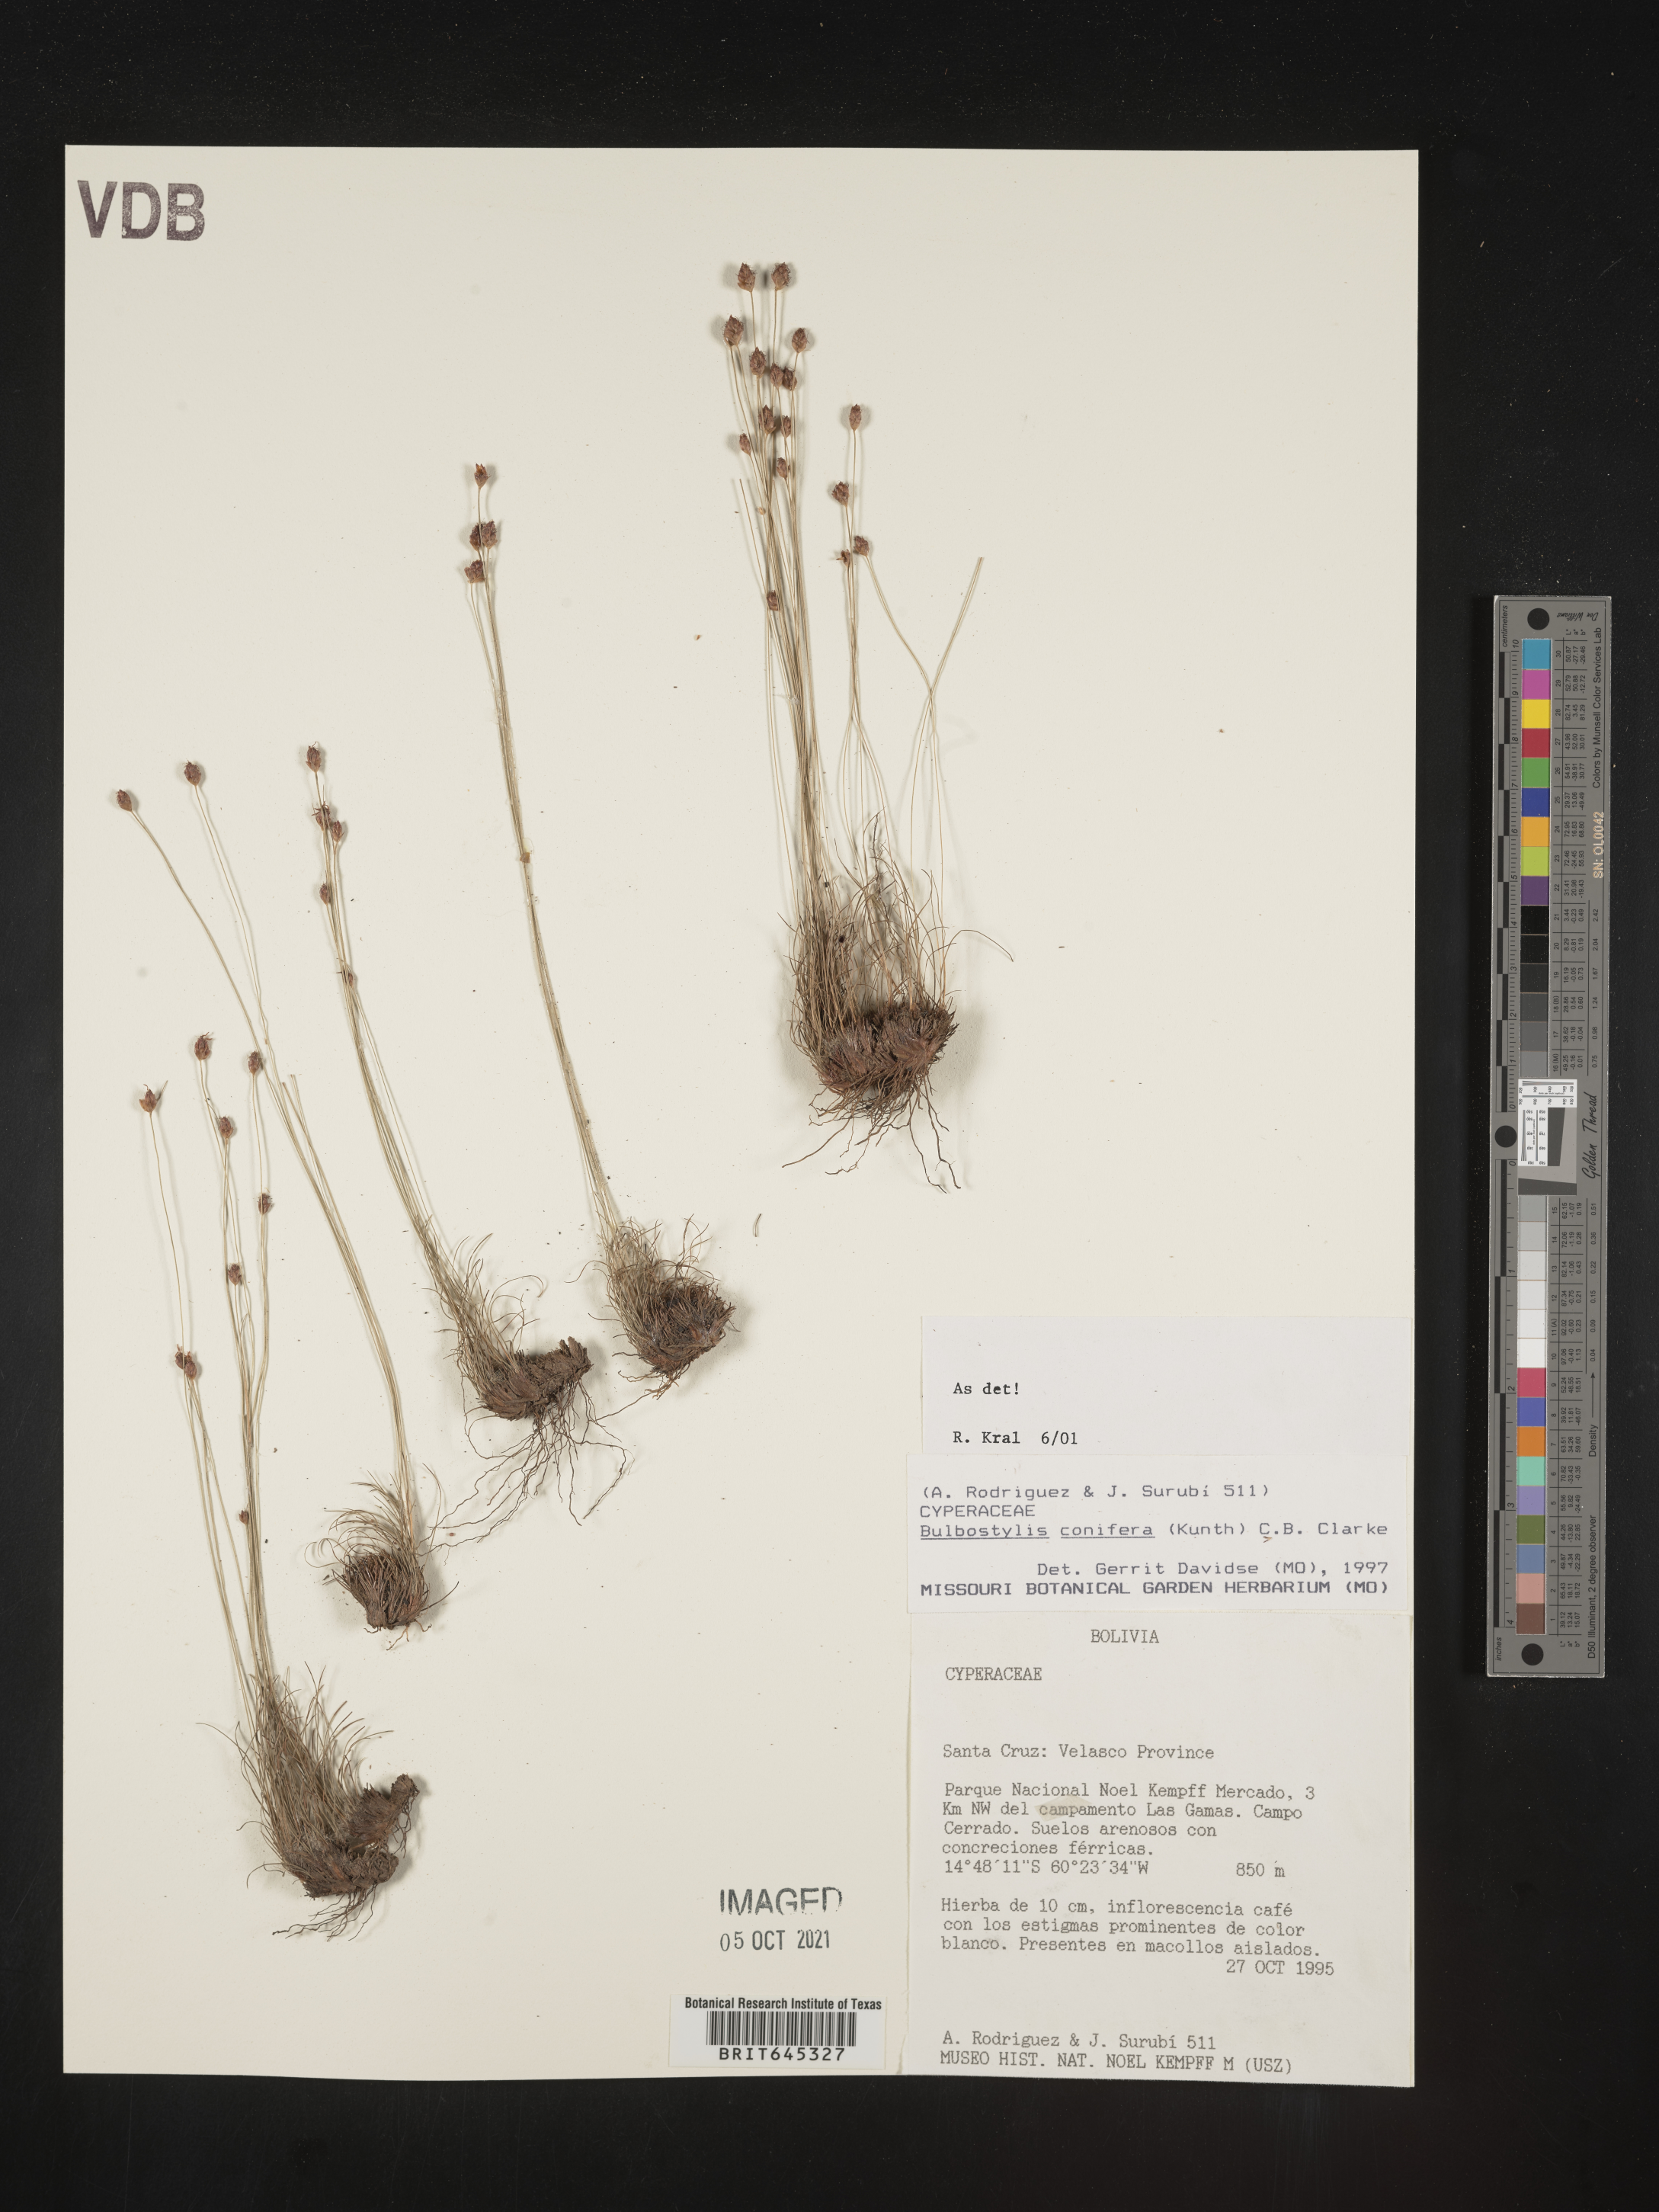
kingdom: Plantae
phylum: Tracheophyta
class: Liliopsida
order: Poales
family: Cyperaceae
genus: Bulbostylis
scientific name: Bulbostylis conifera
